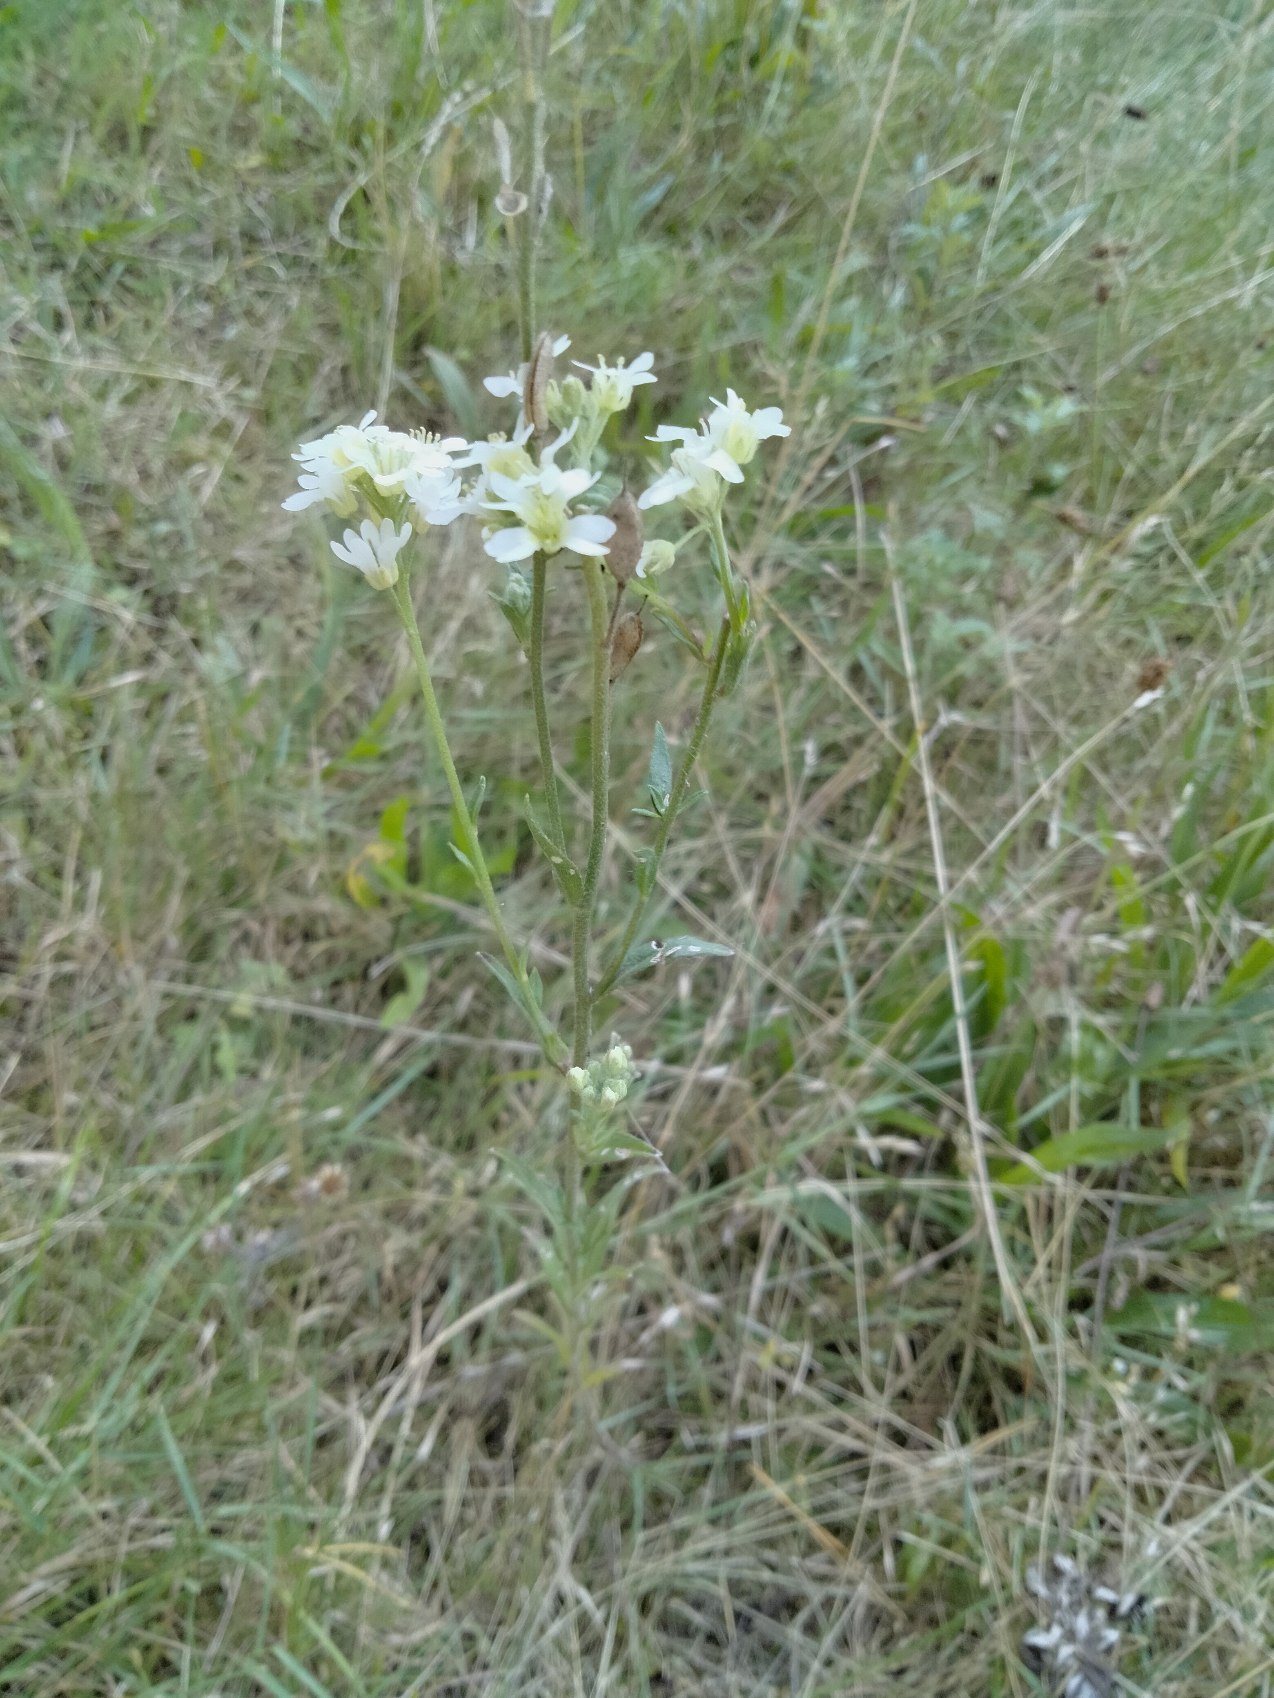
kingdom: Plantae
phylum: Tracheophyta
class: Magnoliopsida
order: Brassicales
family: Brassicaceae
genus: Berteroa
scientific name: Berteroa incana
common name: Kløvplade
